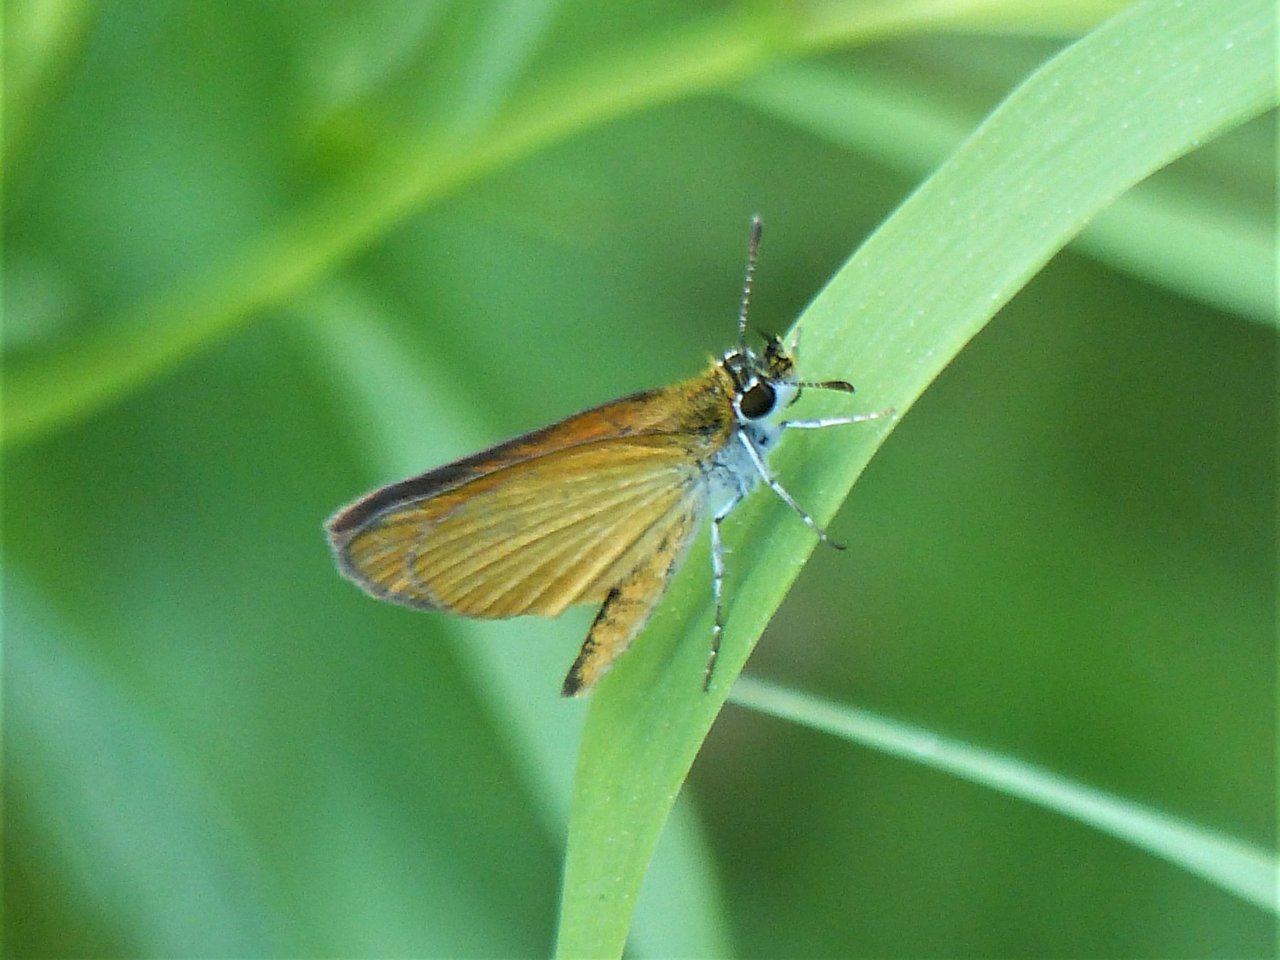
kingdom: Animalia
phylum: Arthropoda
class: Insecta
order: Lepidoptera
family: Hesperiidae
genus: Ancyloxypha
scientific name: Ancyloxypha numitor
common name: Least Skipper
